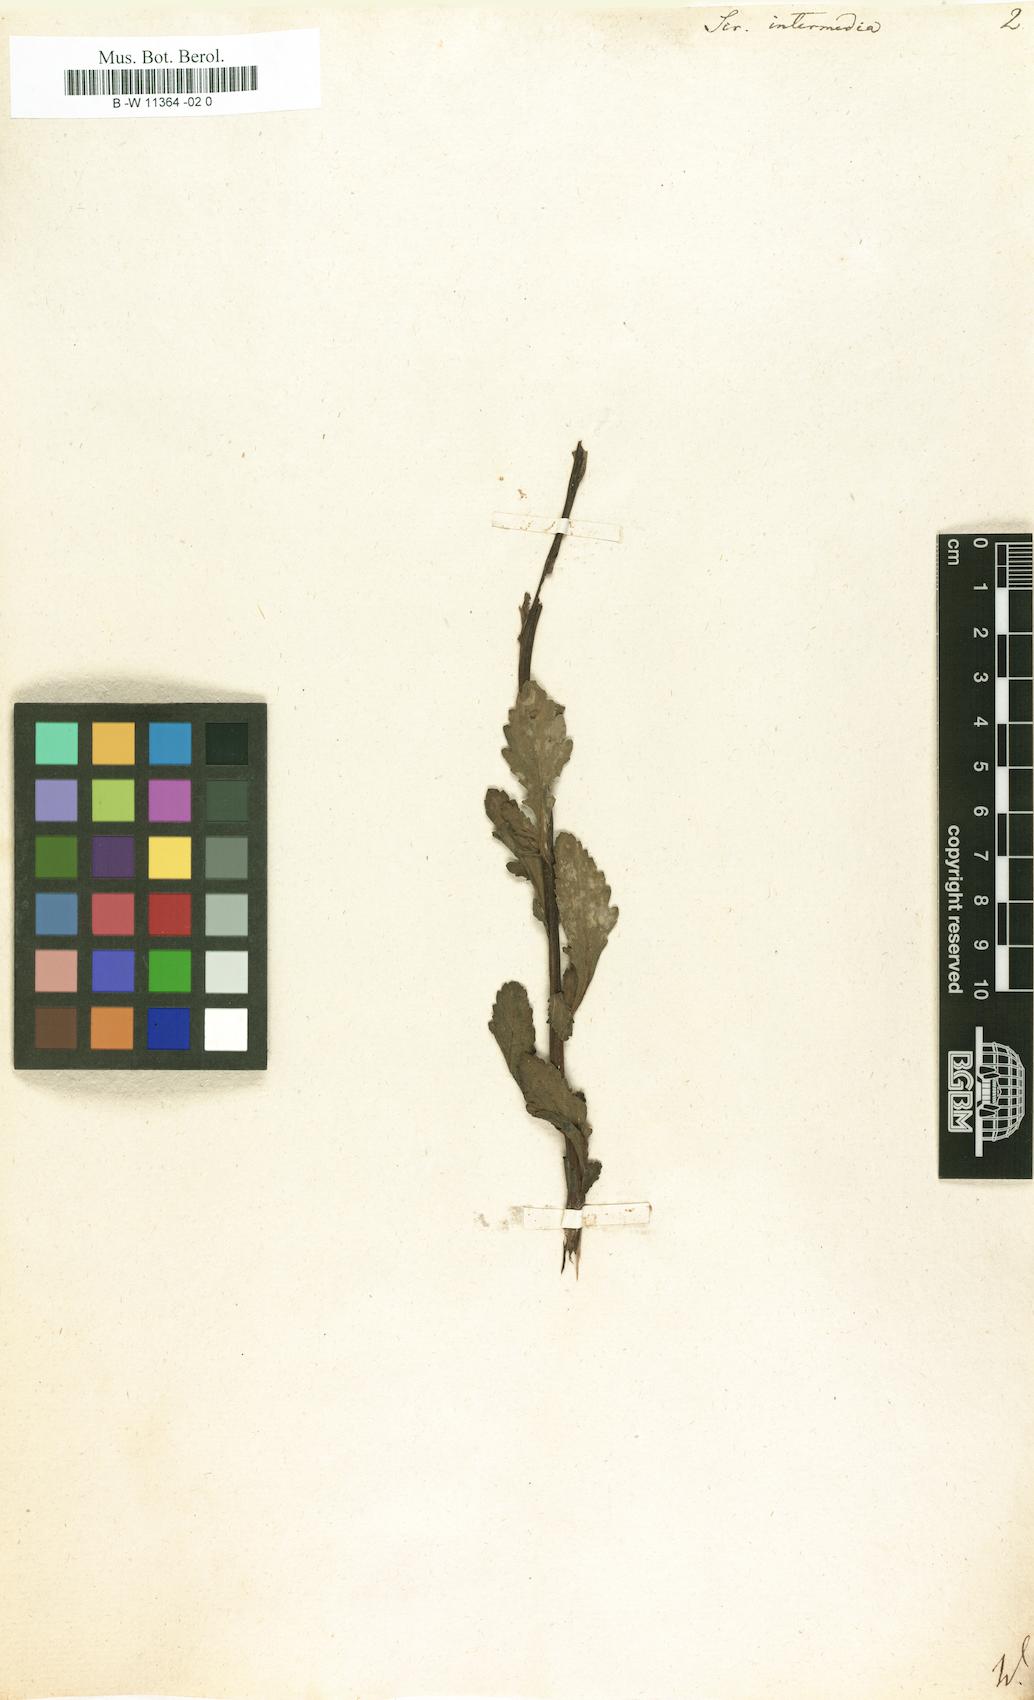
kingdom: Plantae
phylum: Tracheophyta
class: Magnoliopsida
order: Lamiales
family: Scrophulariaceae
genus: Scrophularia
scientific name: Scrophularia
